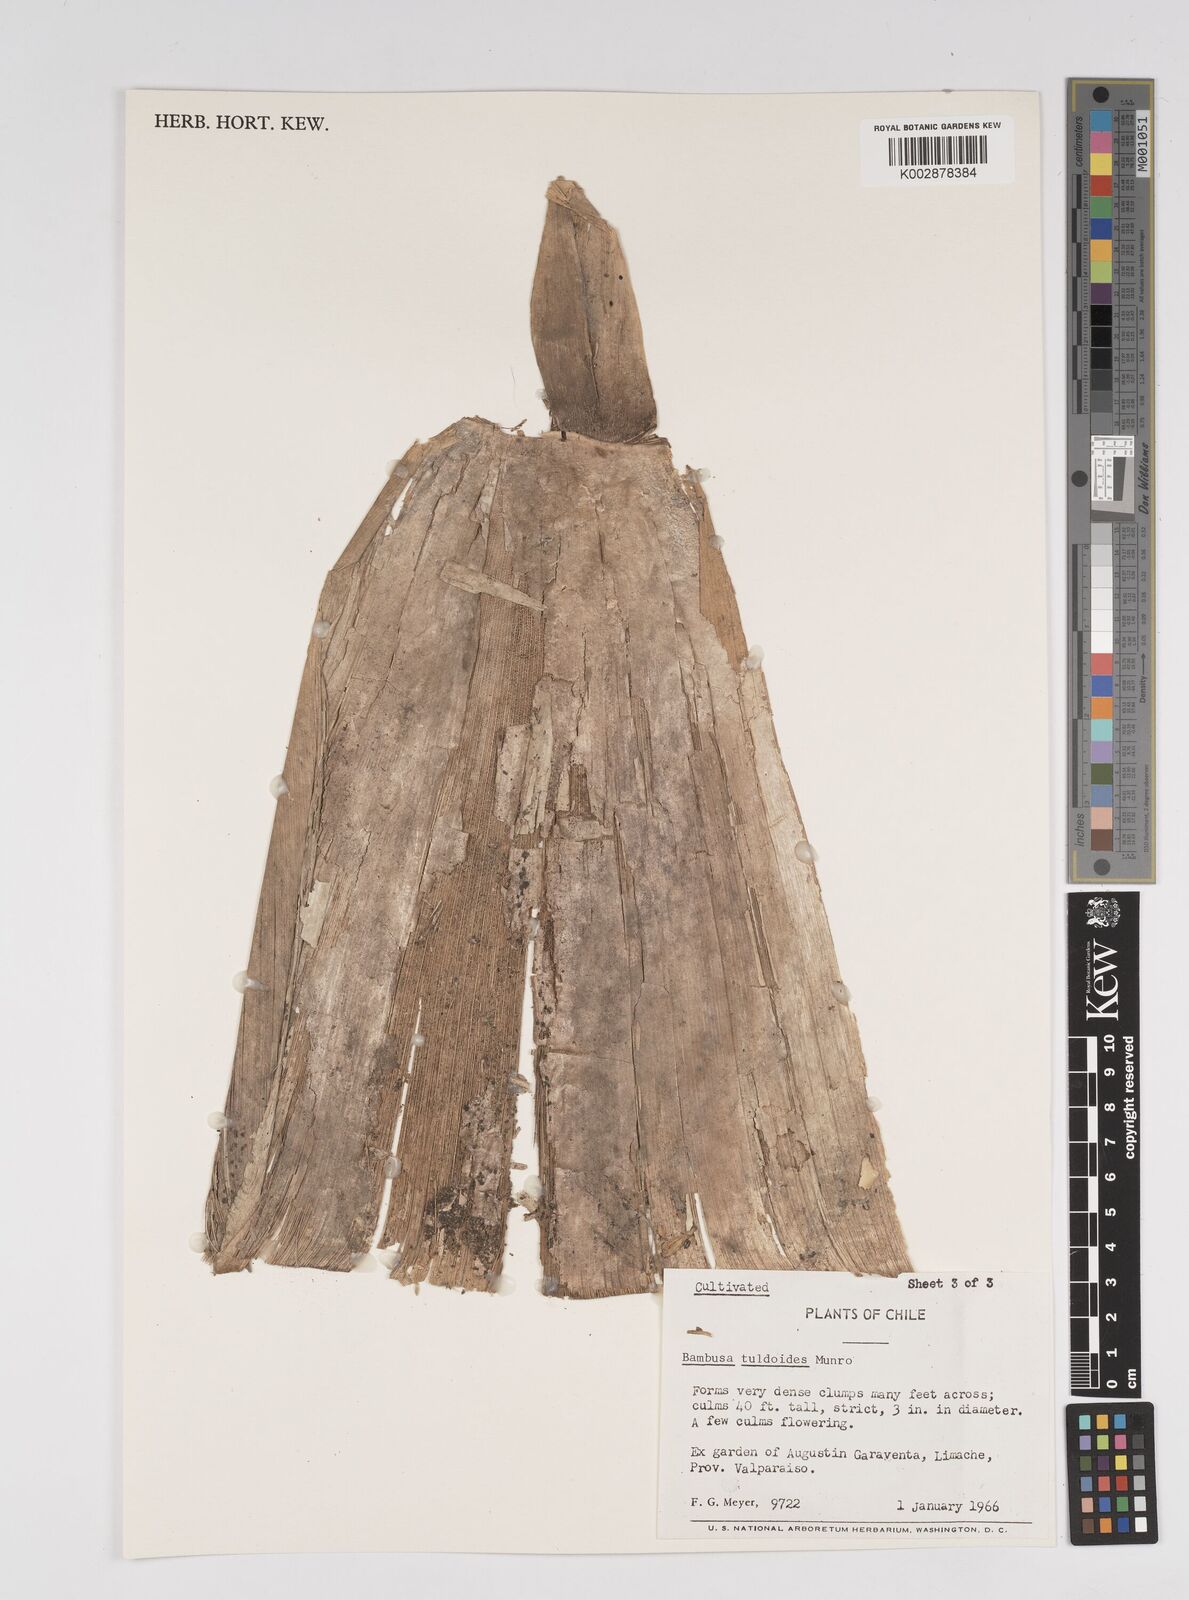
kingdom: Plantae
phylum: Tracheophyta
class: Liliopsida
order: Poales
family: Poaceae
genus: Bambusa
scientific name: Bambusa tuldoides
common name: Verdant bamboo
